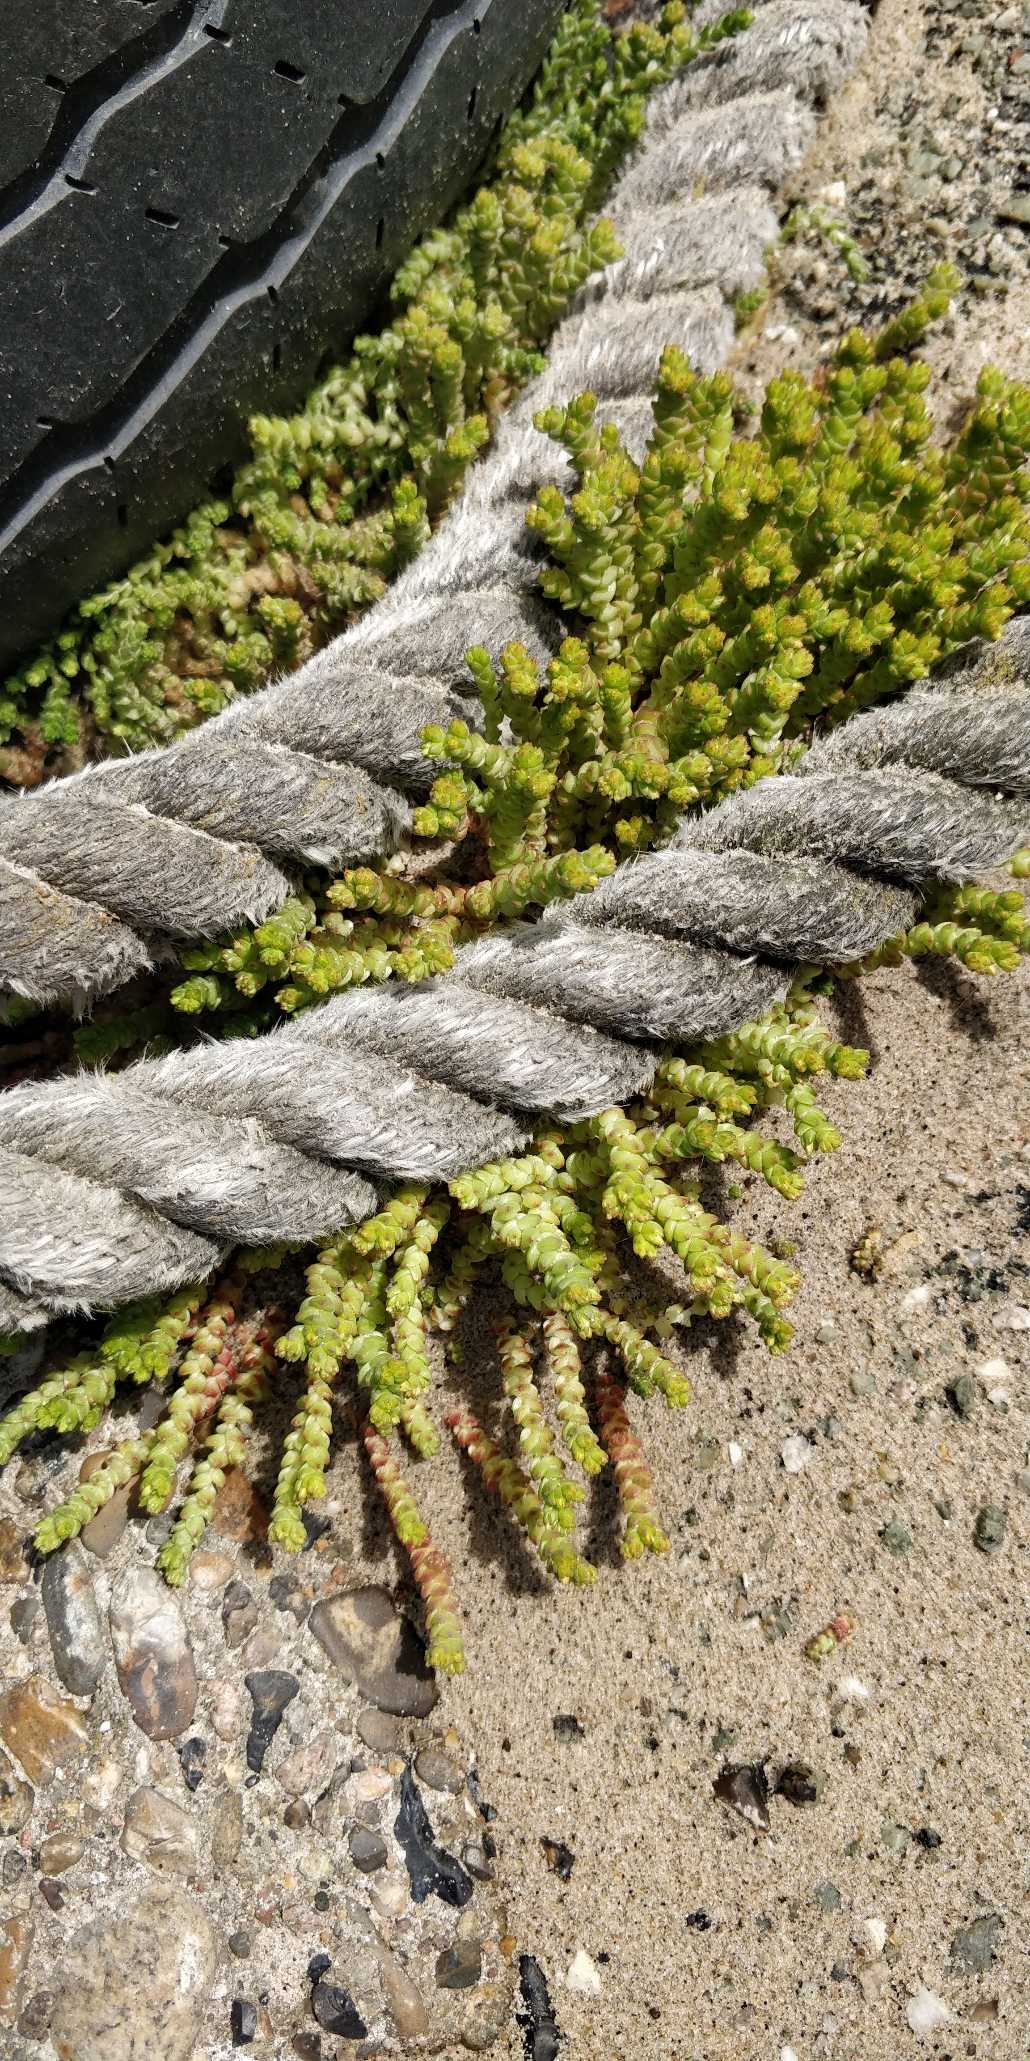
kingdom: Plantae
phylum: Tracheophyta
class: Magnoliopsida
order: Saxifragales
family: Crassulaceae
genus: Sedum
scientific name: Sedum acre
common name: Bidende stenurt
